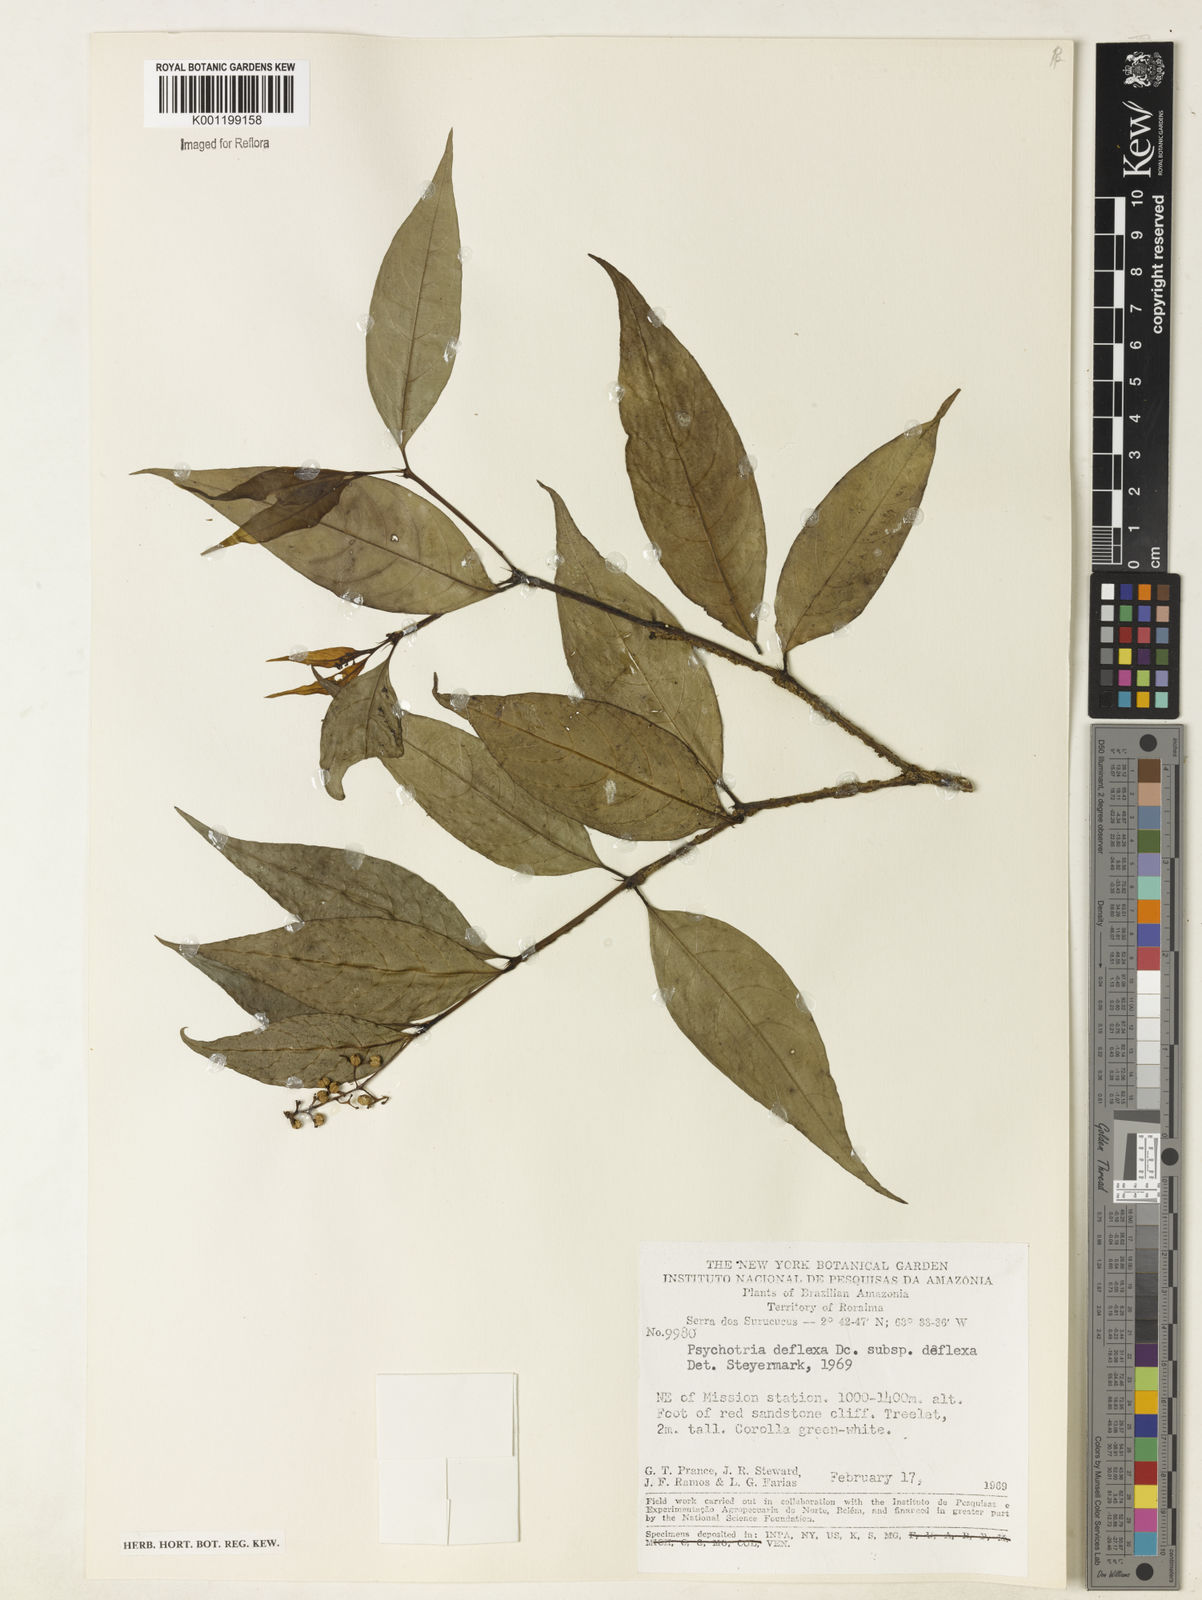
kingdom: Plantae
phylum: Tracheophyta
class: Magnoliopsida
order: Gentianales
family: Rubiaceae
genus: Palicourea
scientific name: Palicourea deflexa
